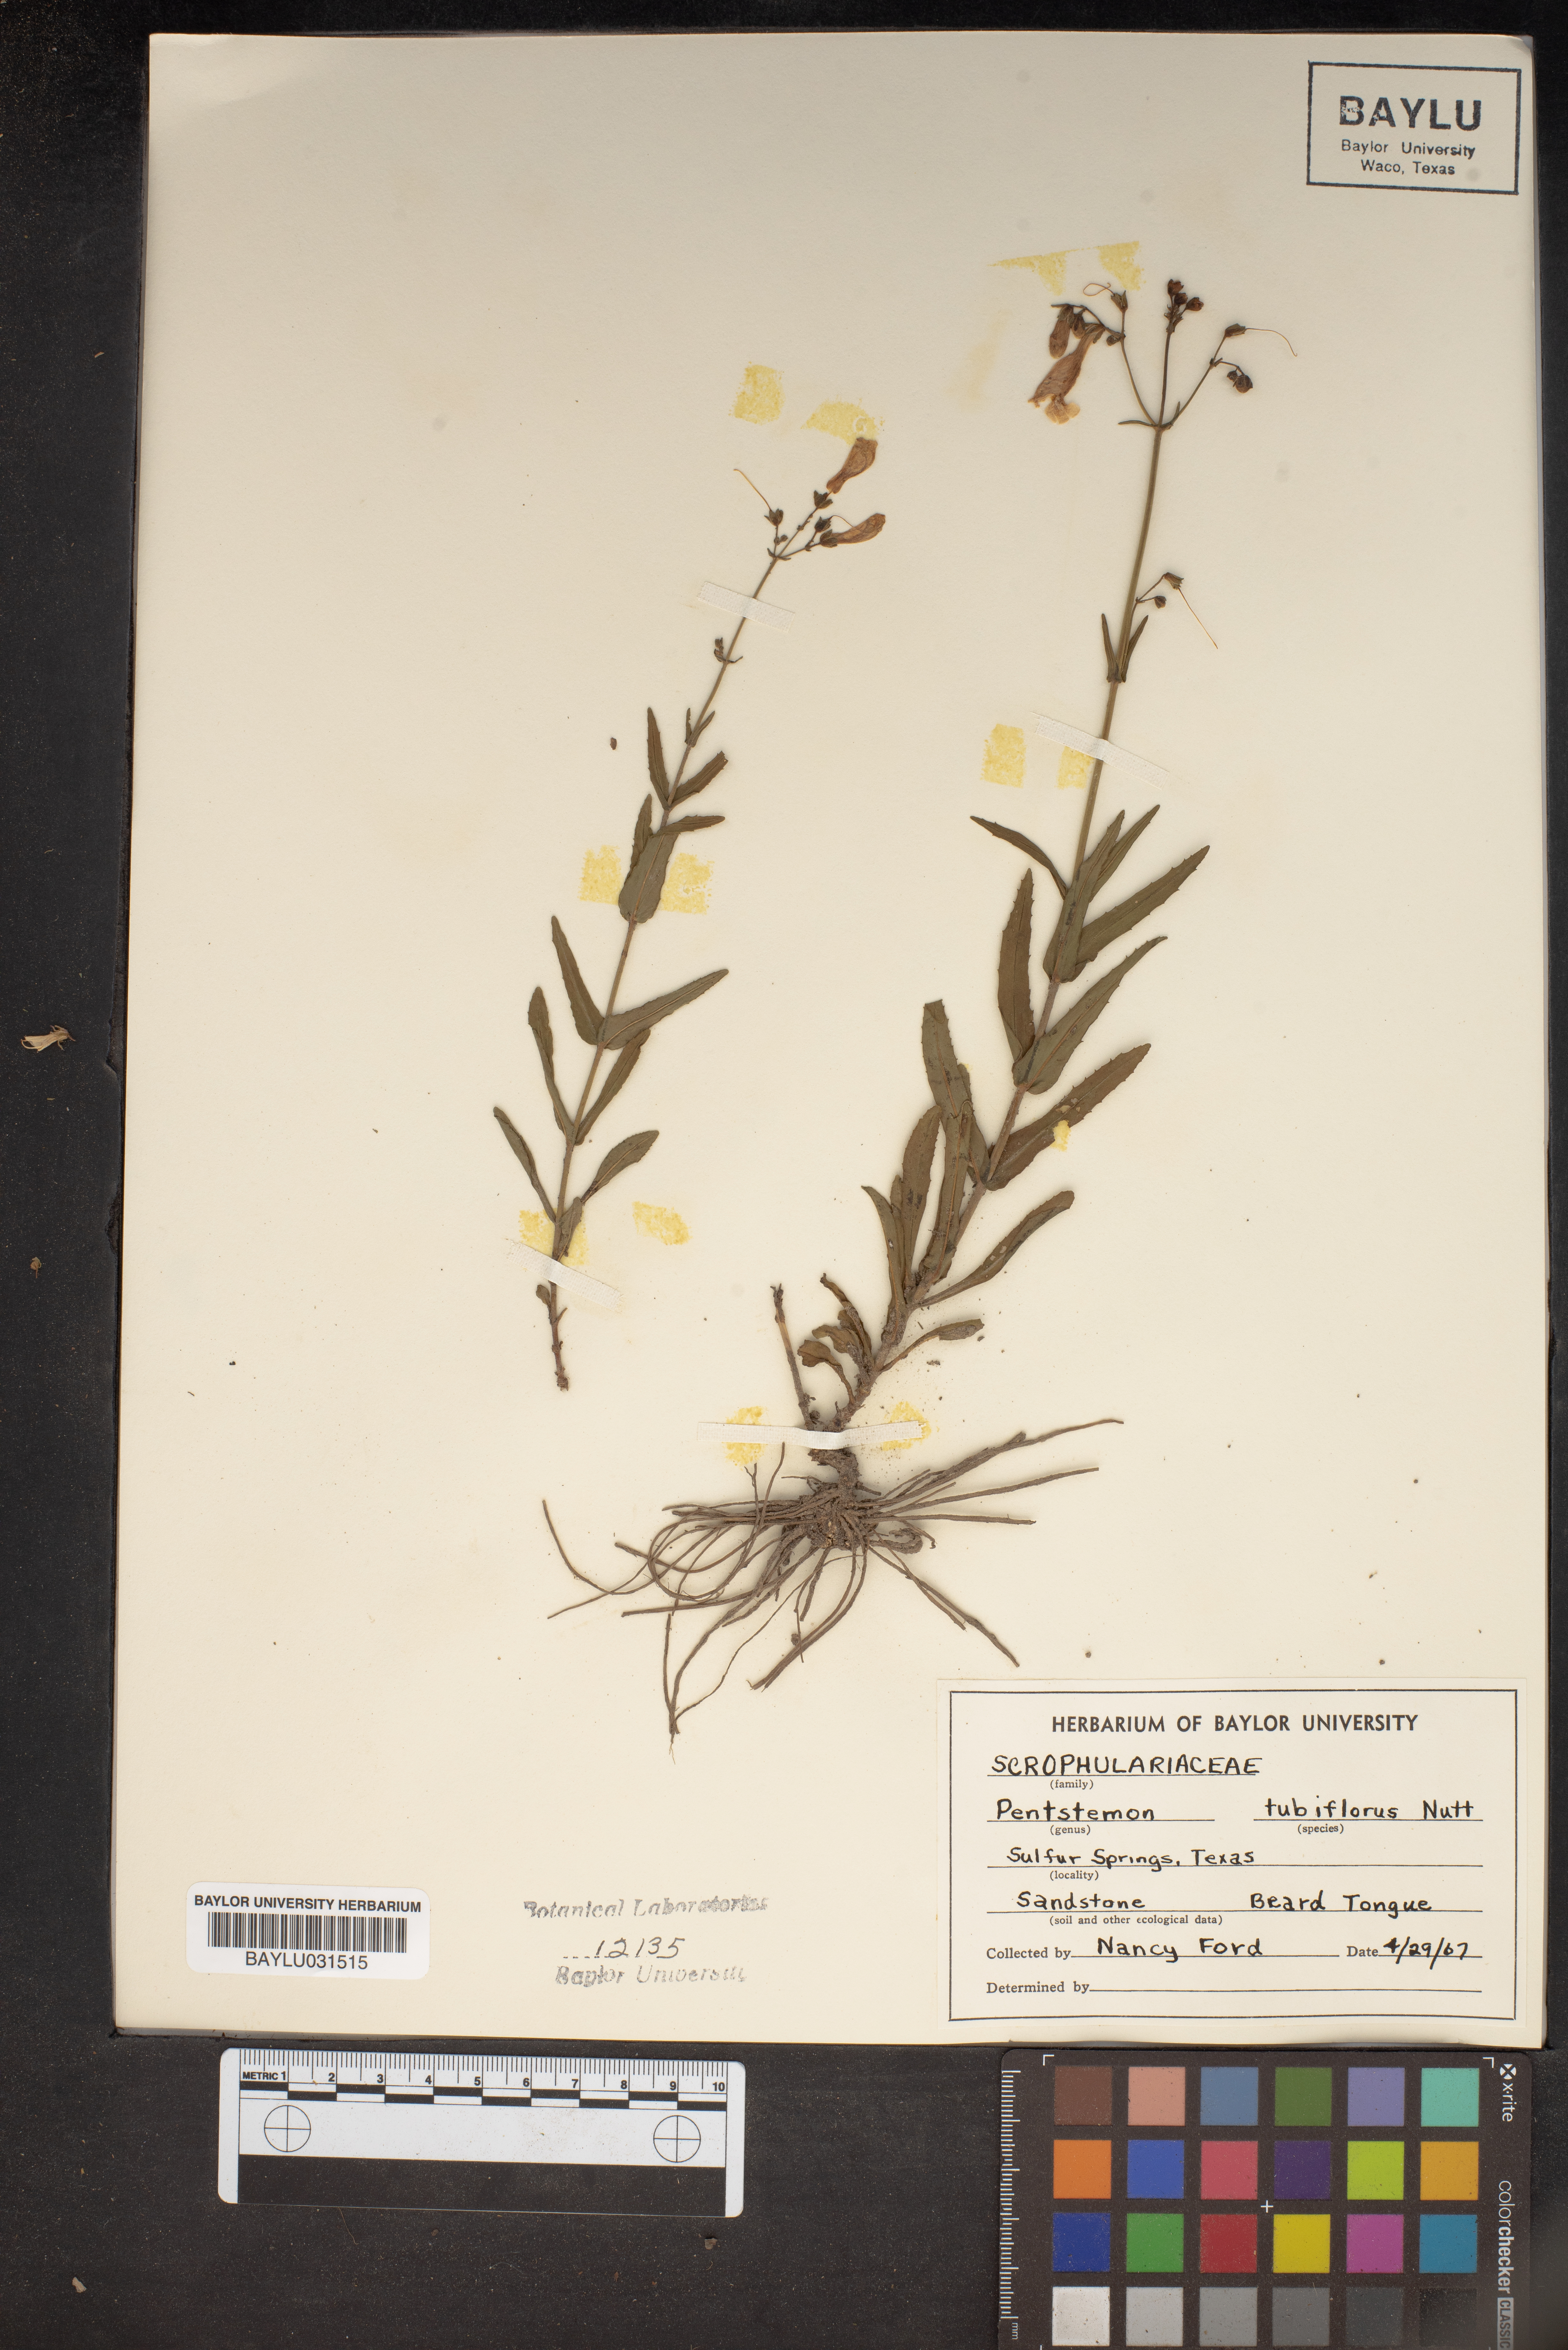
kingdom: Plantae
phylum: Tracheophyta
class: Magnoliopsida
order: Lamiales
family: Scrophulariaceae
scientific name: Scrophulariaceae
